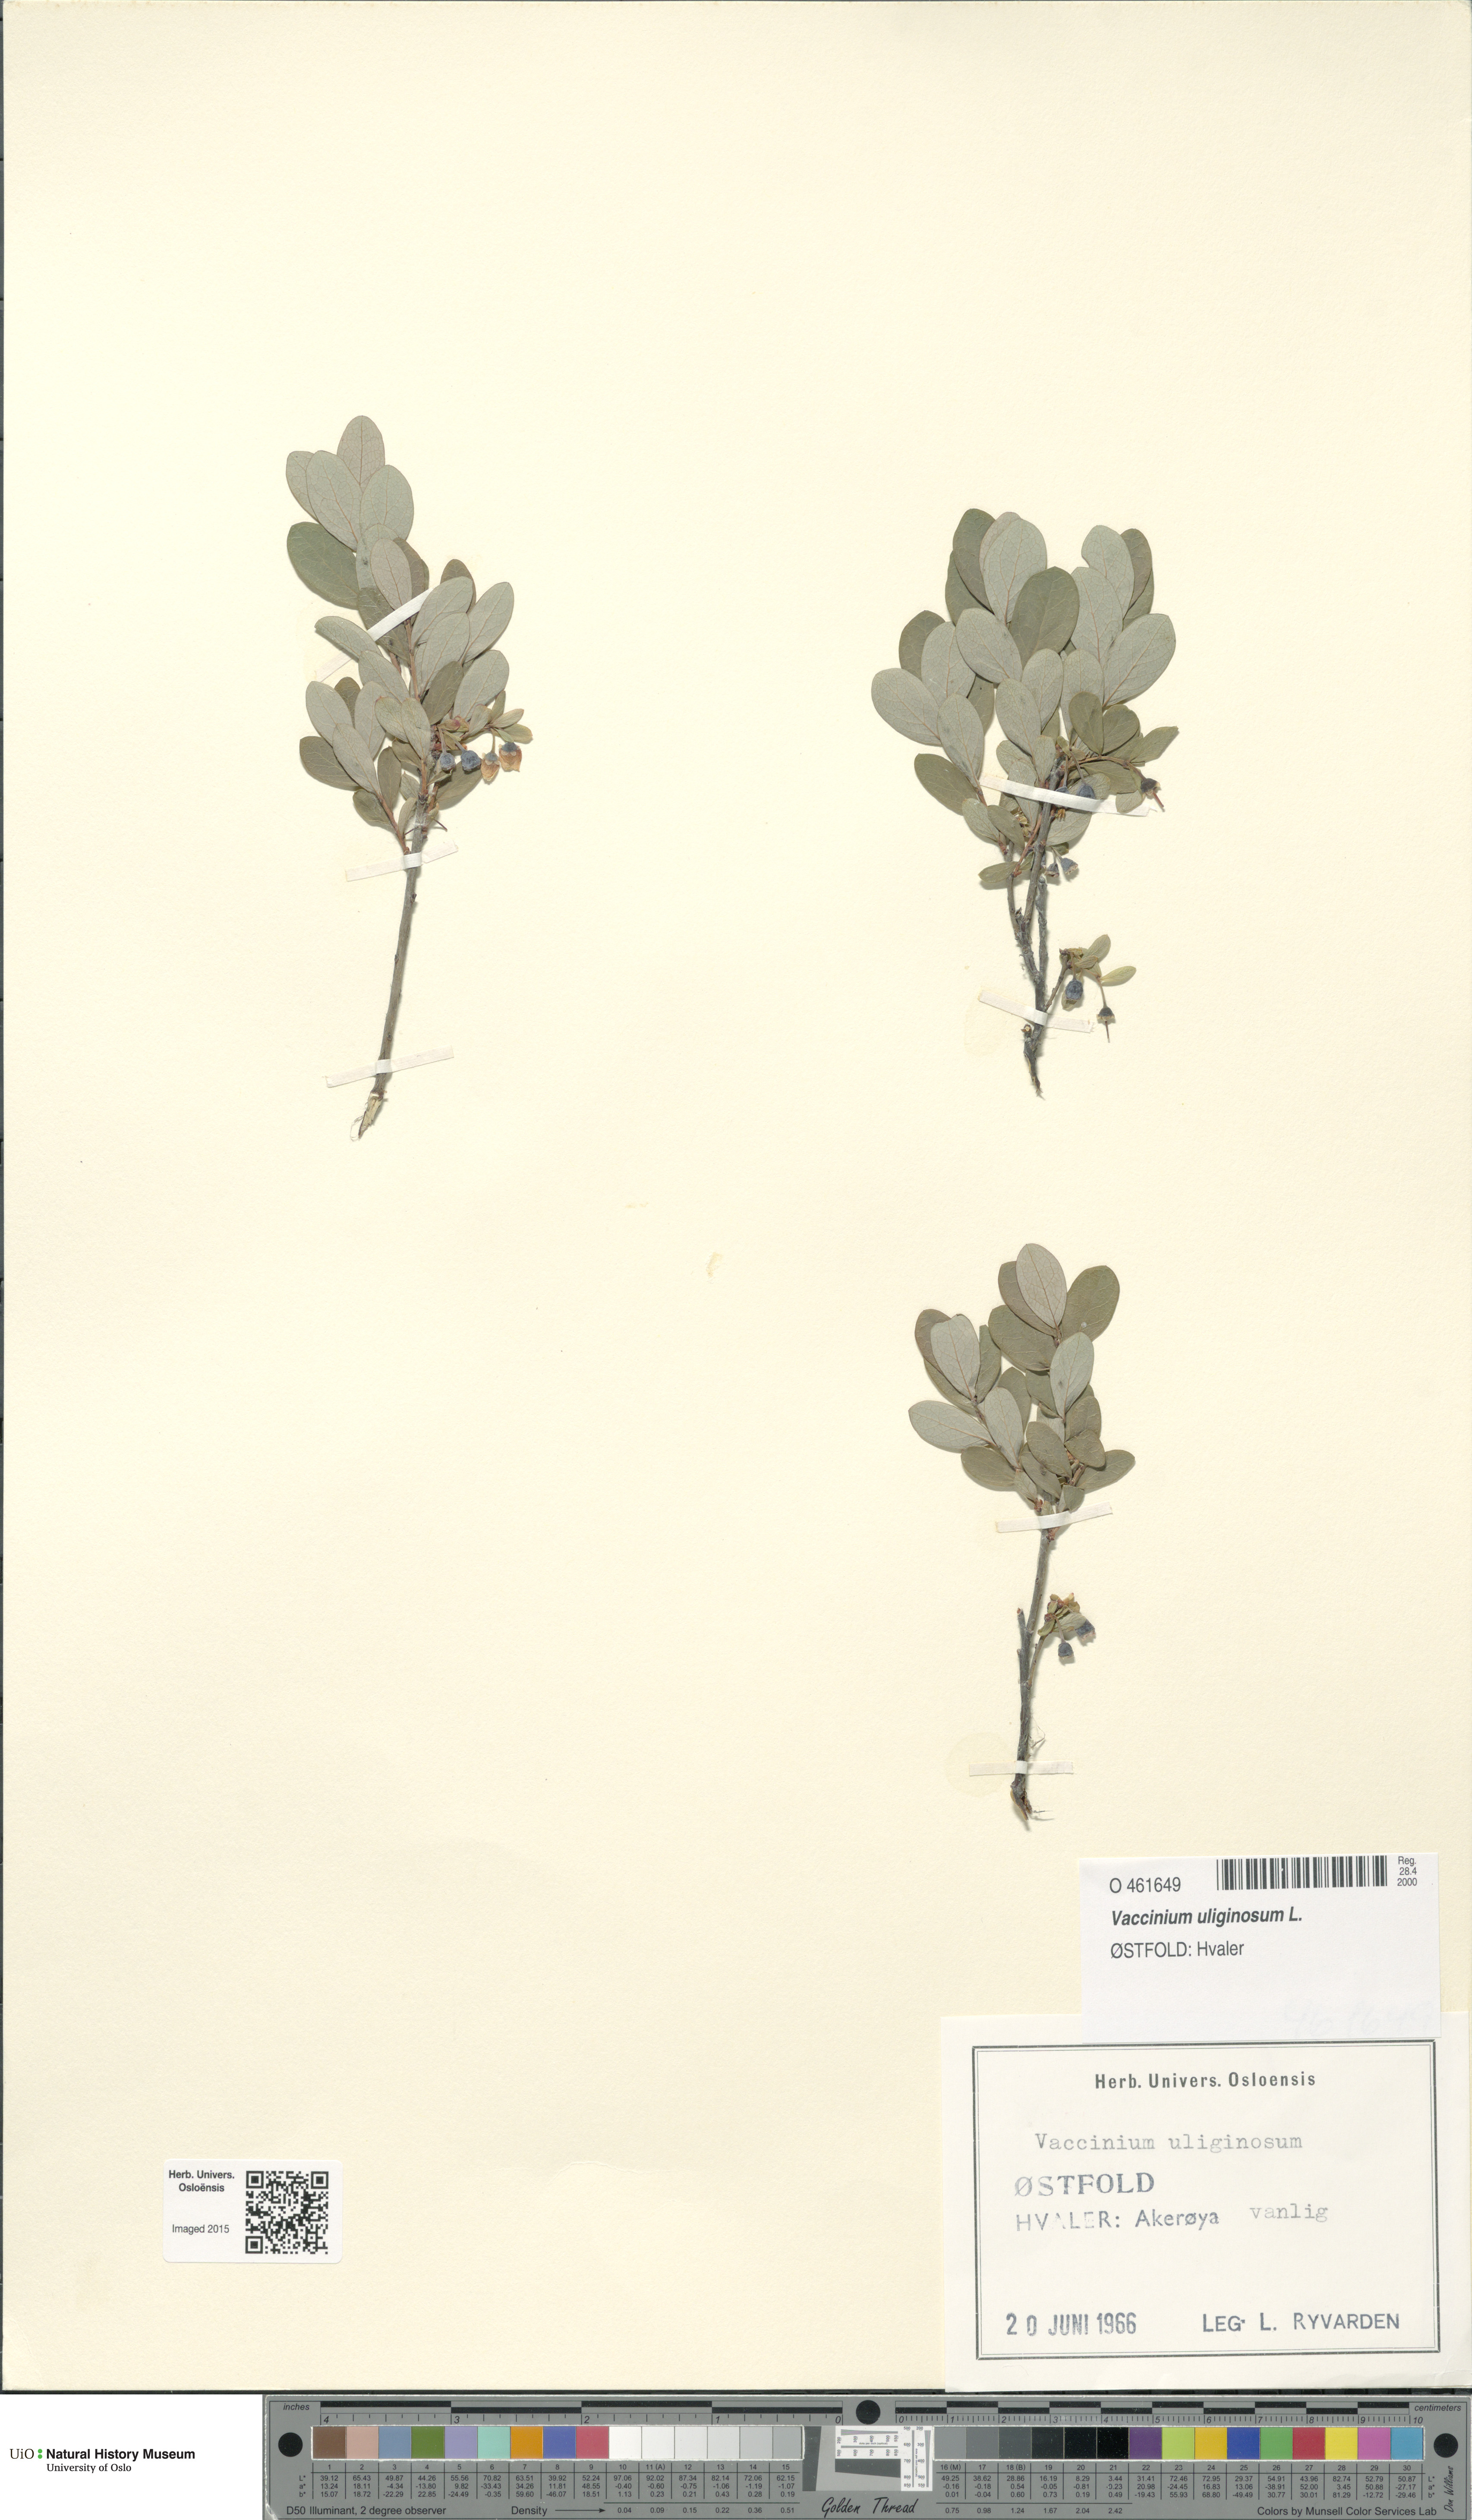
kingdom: Plantae
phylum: Tracheophyta
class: Magnoliopsida
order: Ericales
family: Ericaceae
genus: Vaccinium
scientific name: Vaccinium uliginosum
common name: Bog bilberry
